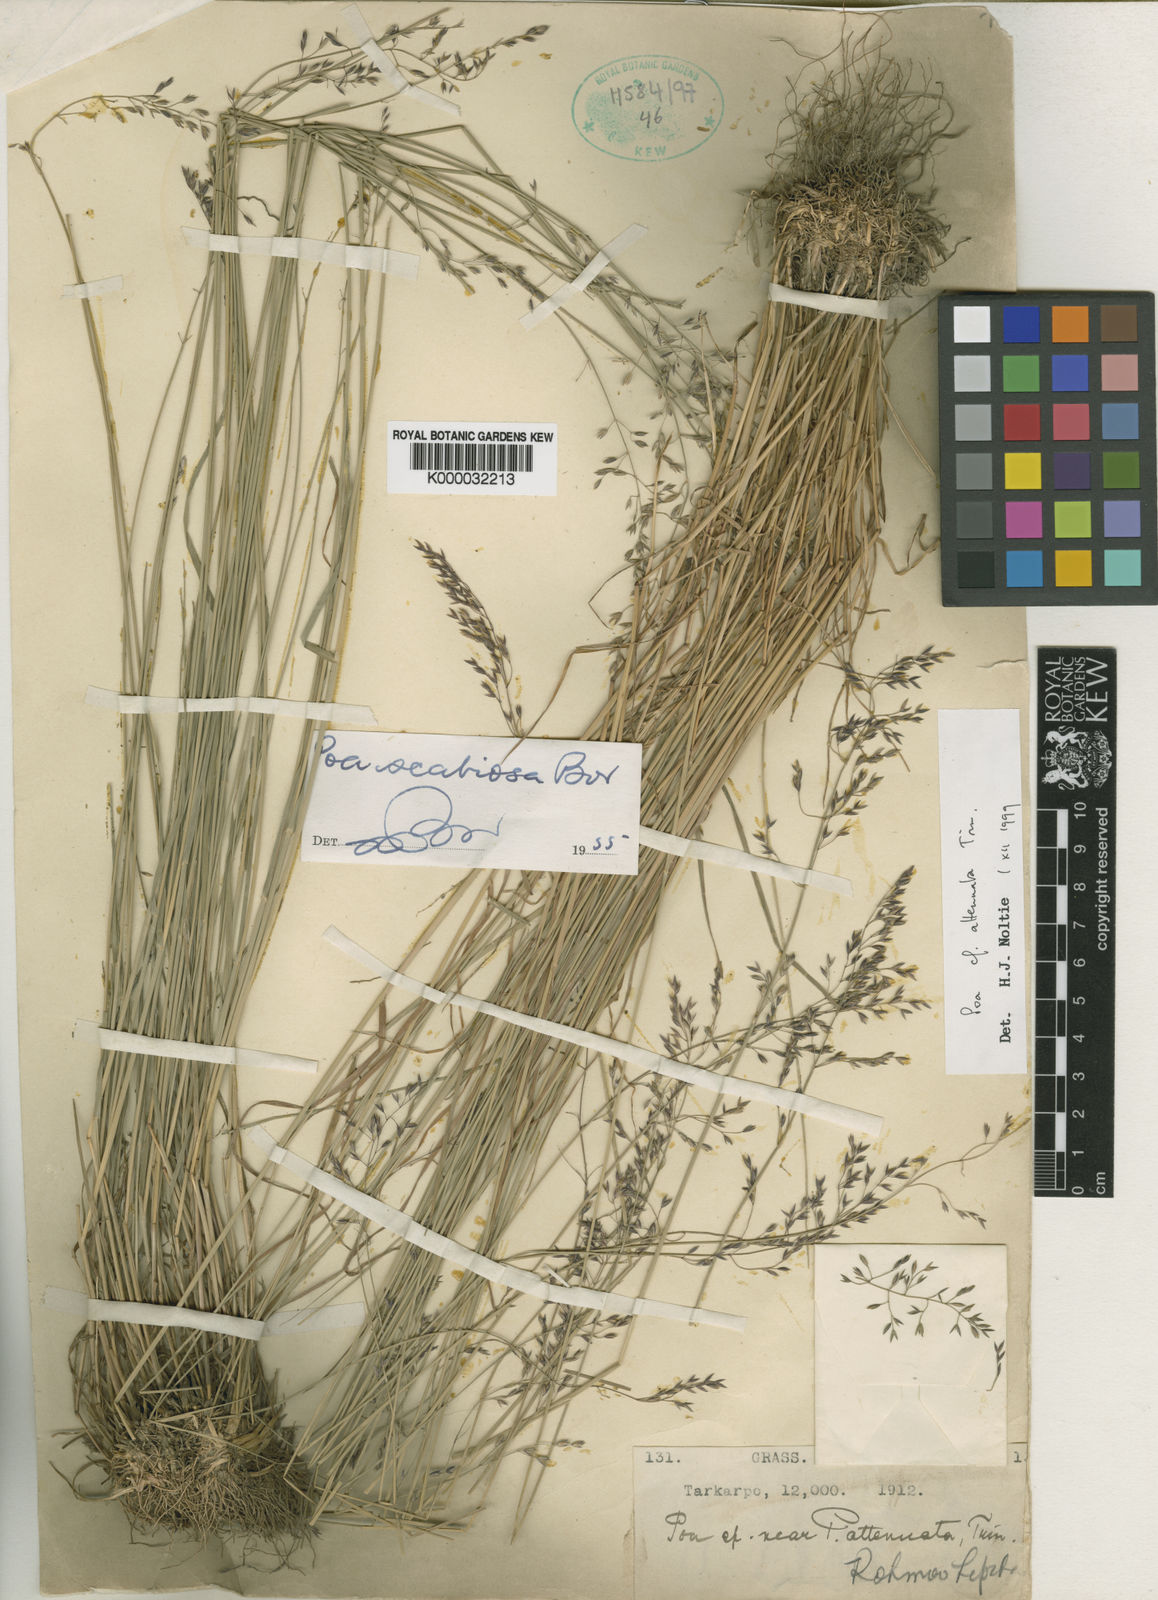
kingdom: Plantae
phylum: Tracheophyta
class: Liliopsida
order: Poales
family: Poaceae
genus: Poa
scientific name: Poa attenuata
